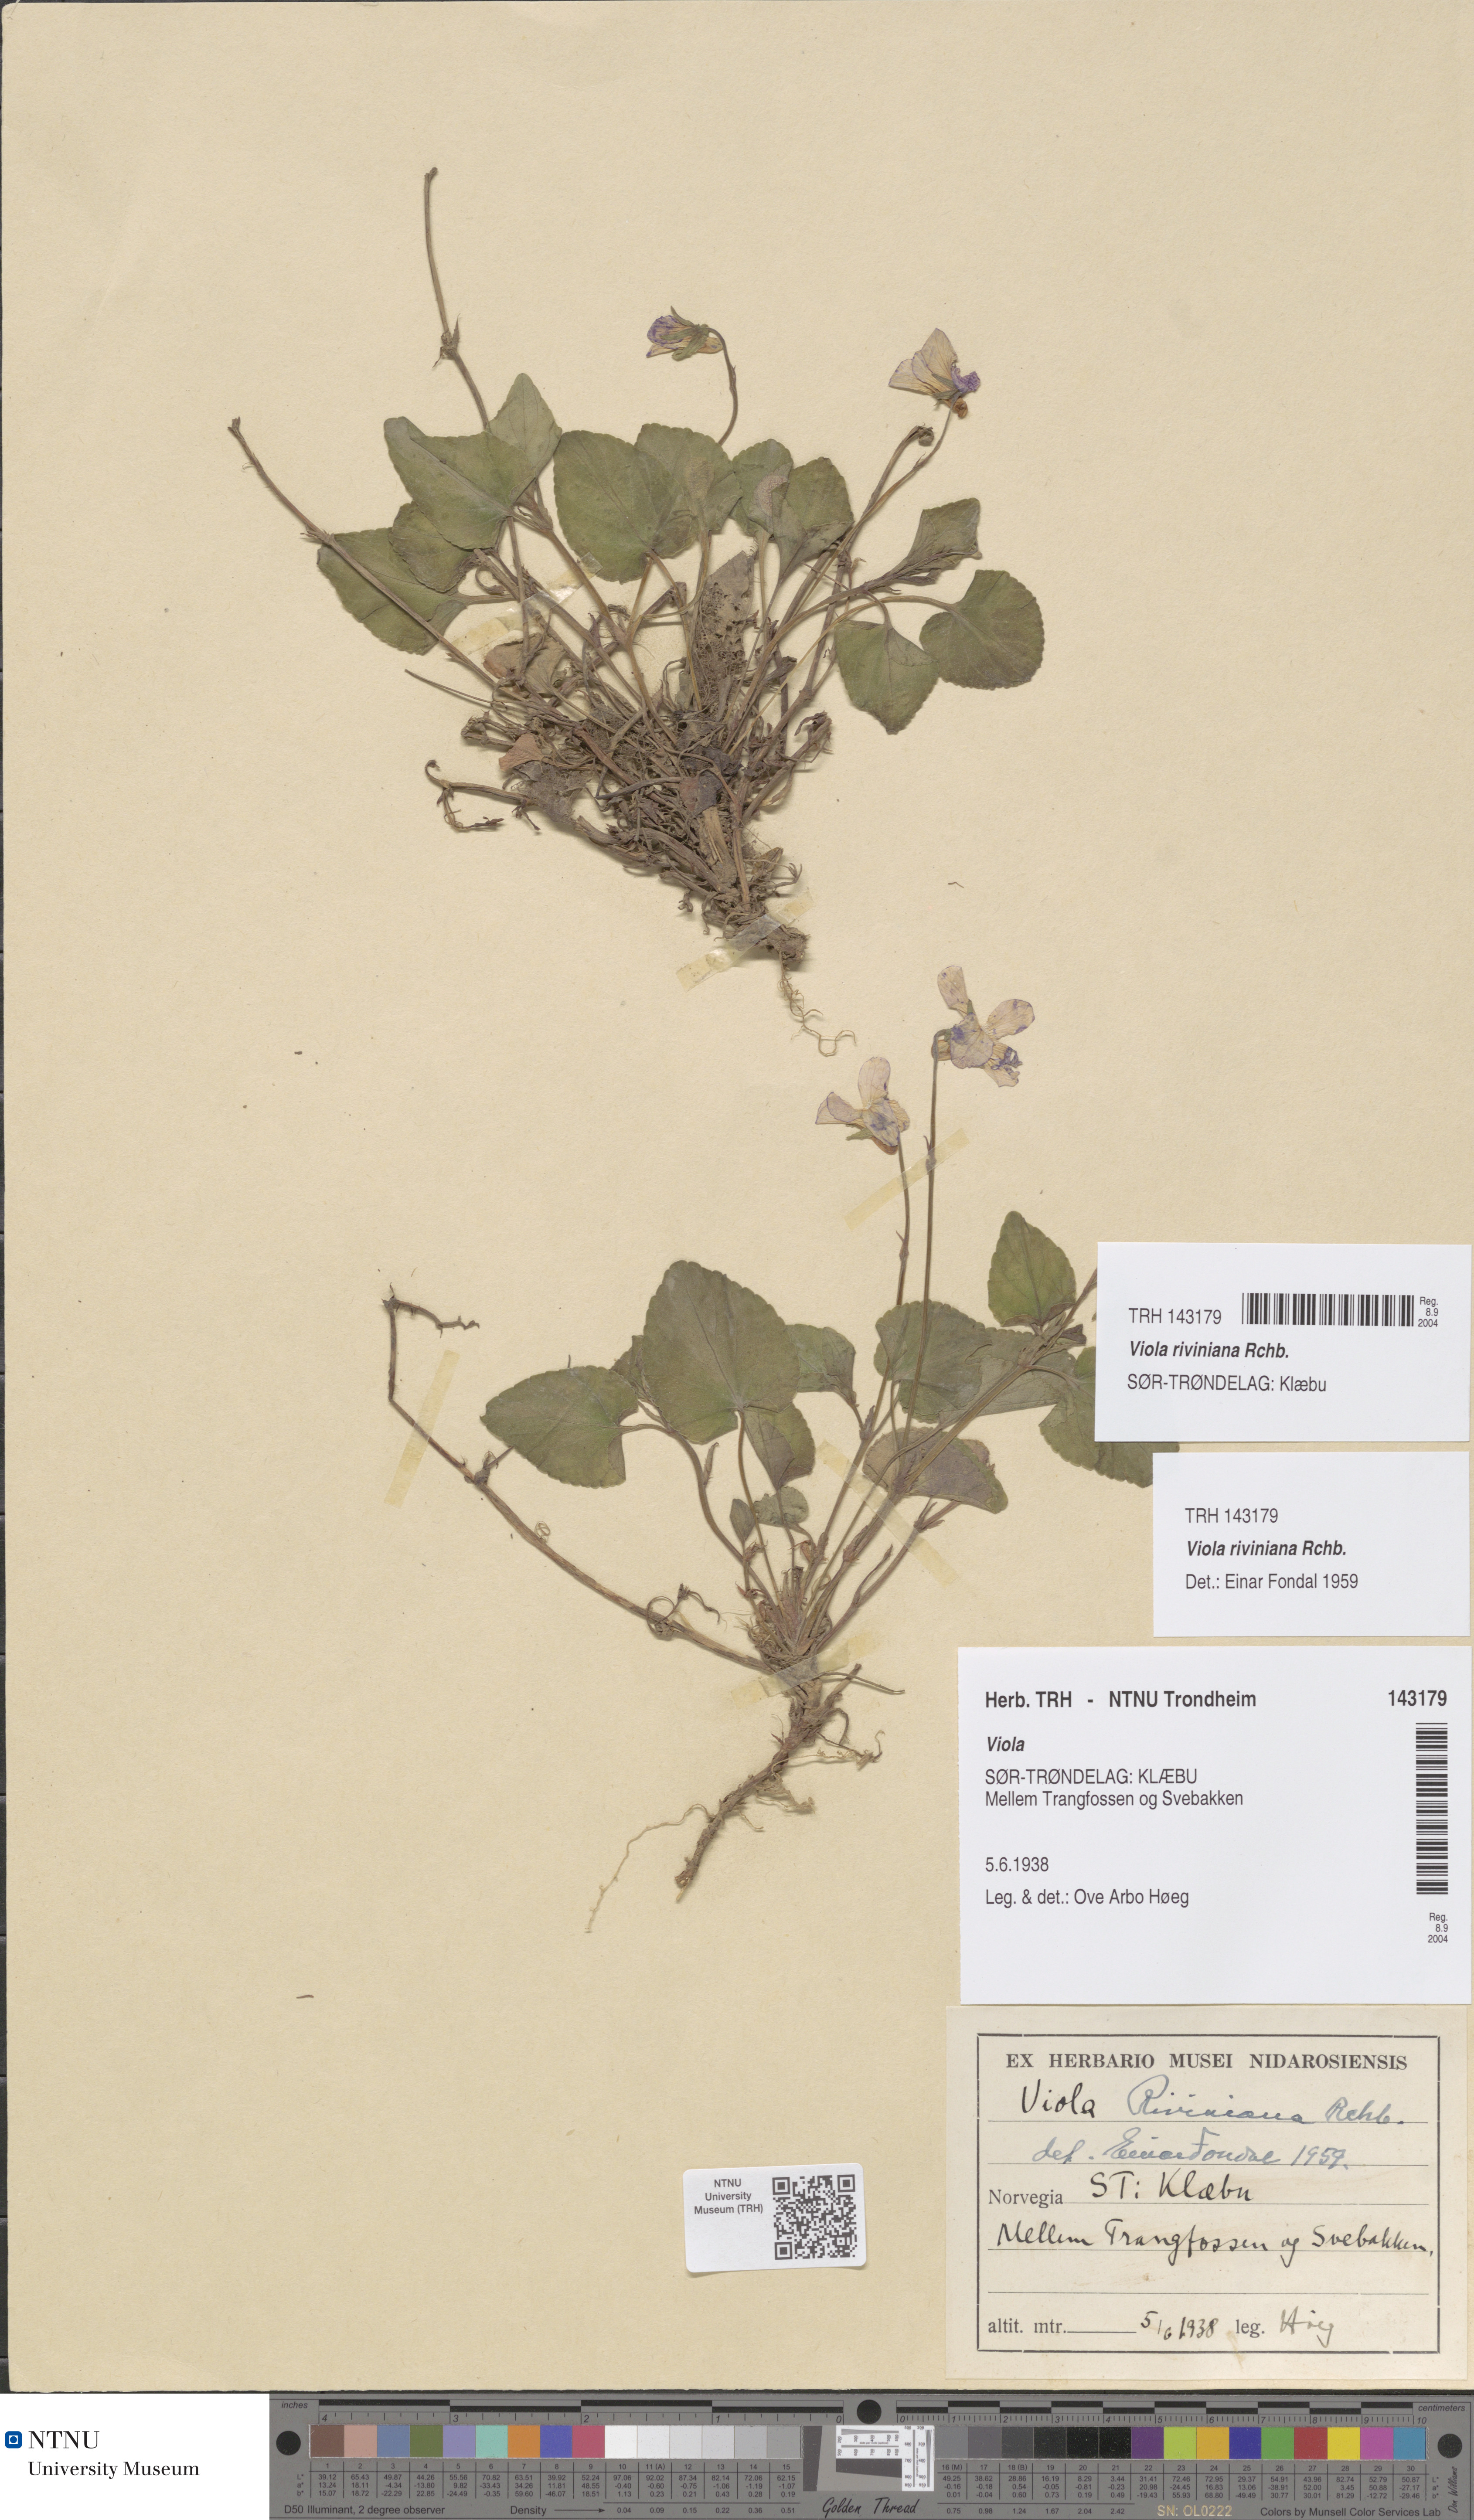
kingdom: Plantae
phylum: Tracheophyta
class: Magnoliopsida
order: Malpighiales
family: Violaceae
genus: Viola
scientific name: Viola riviniana
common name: Common dog-violet
